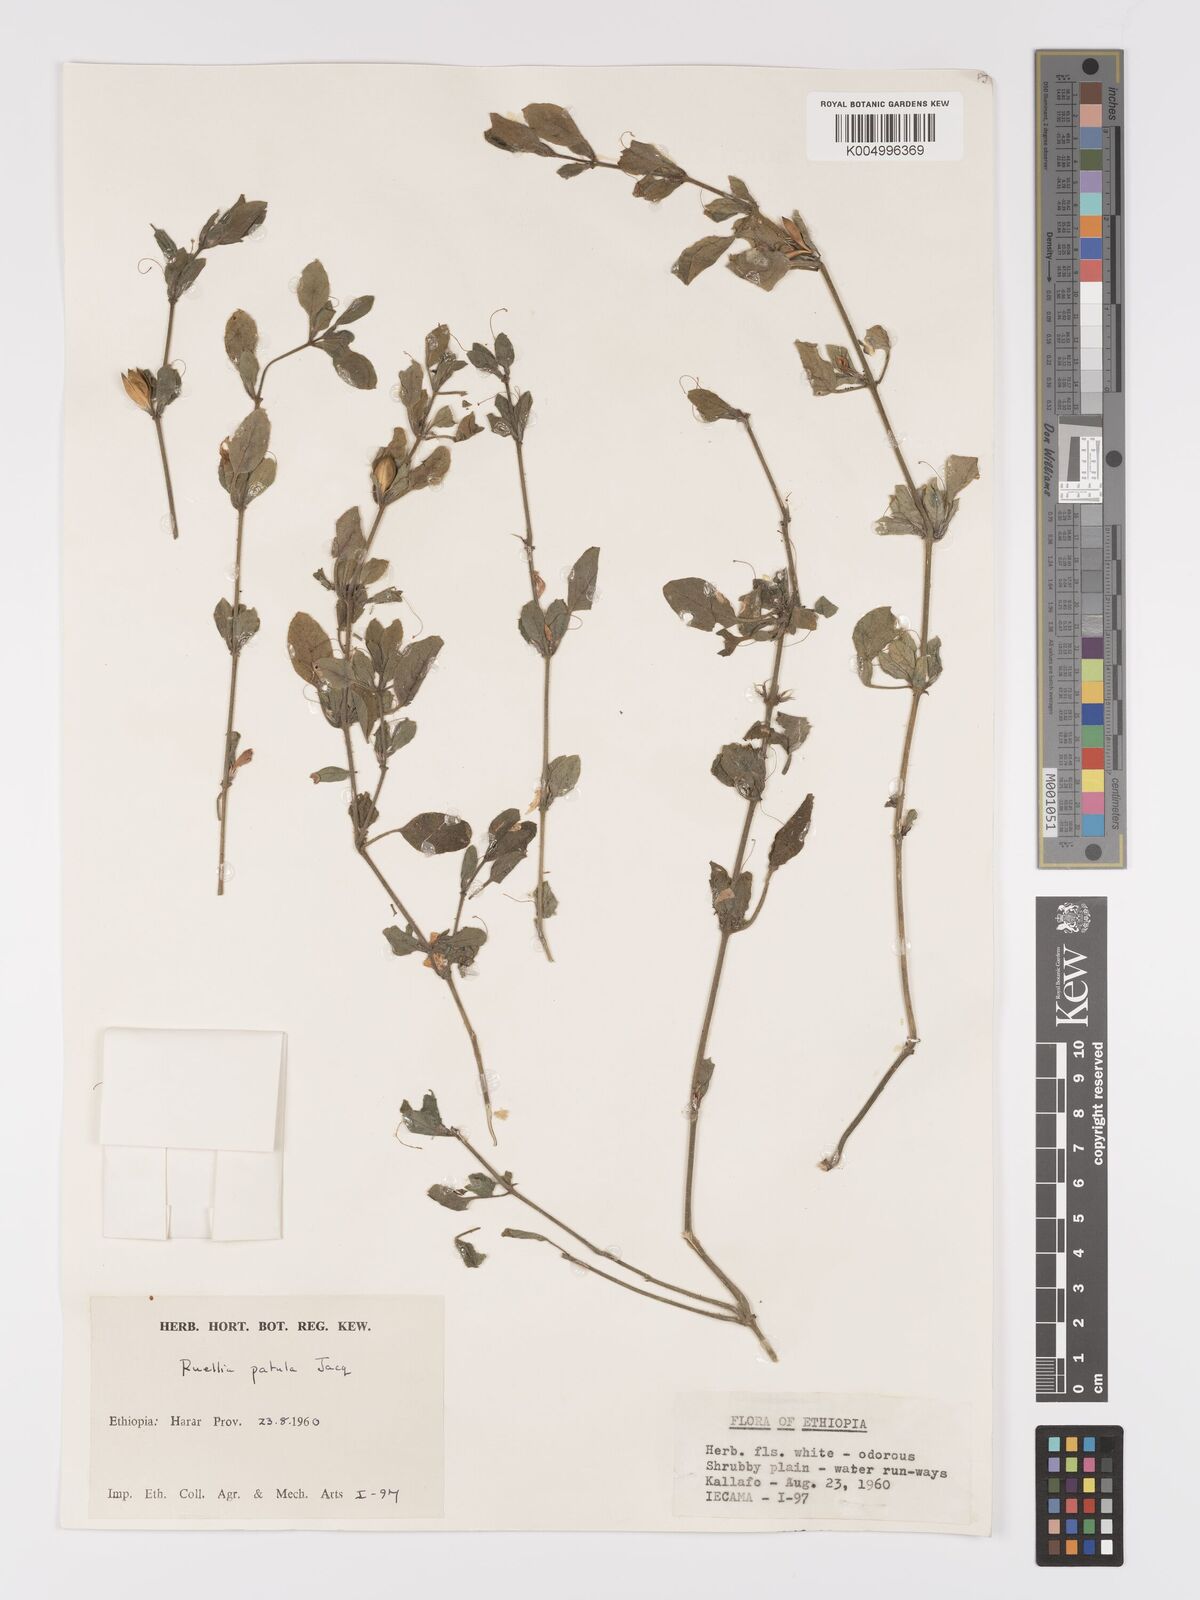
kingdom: Plantae
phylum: Tracheophyta
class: Magnoliopsida
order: Lamiales
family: Acanthaceae
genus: Ruellia
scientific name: Ruellia patula
